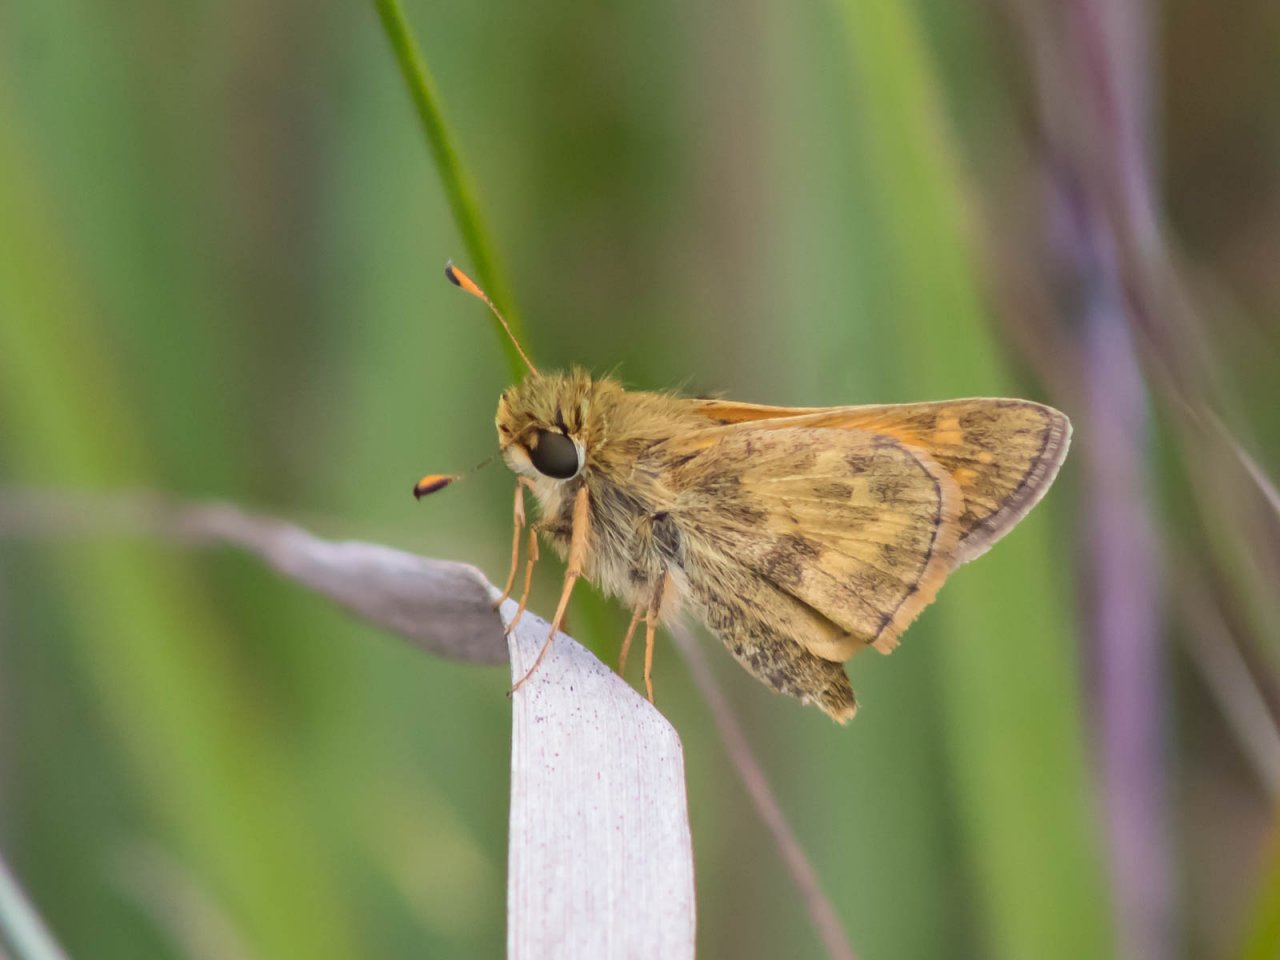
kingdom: Animalia
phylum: Arthropoda
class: Insecta
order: Lepidoptera
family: Hesperiidae
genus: Atalopedes
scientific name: Atalopedes campestris
